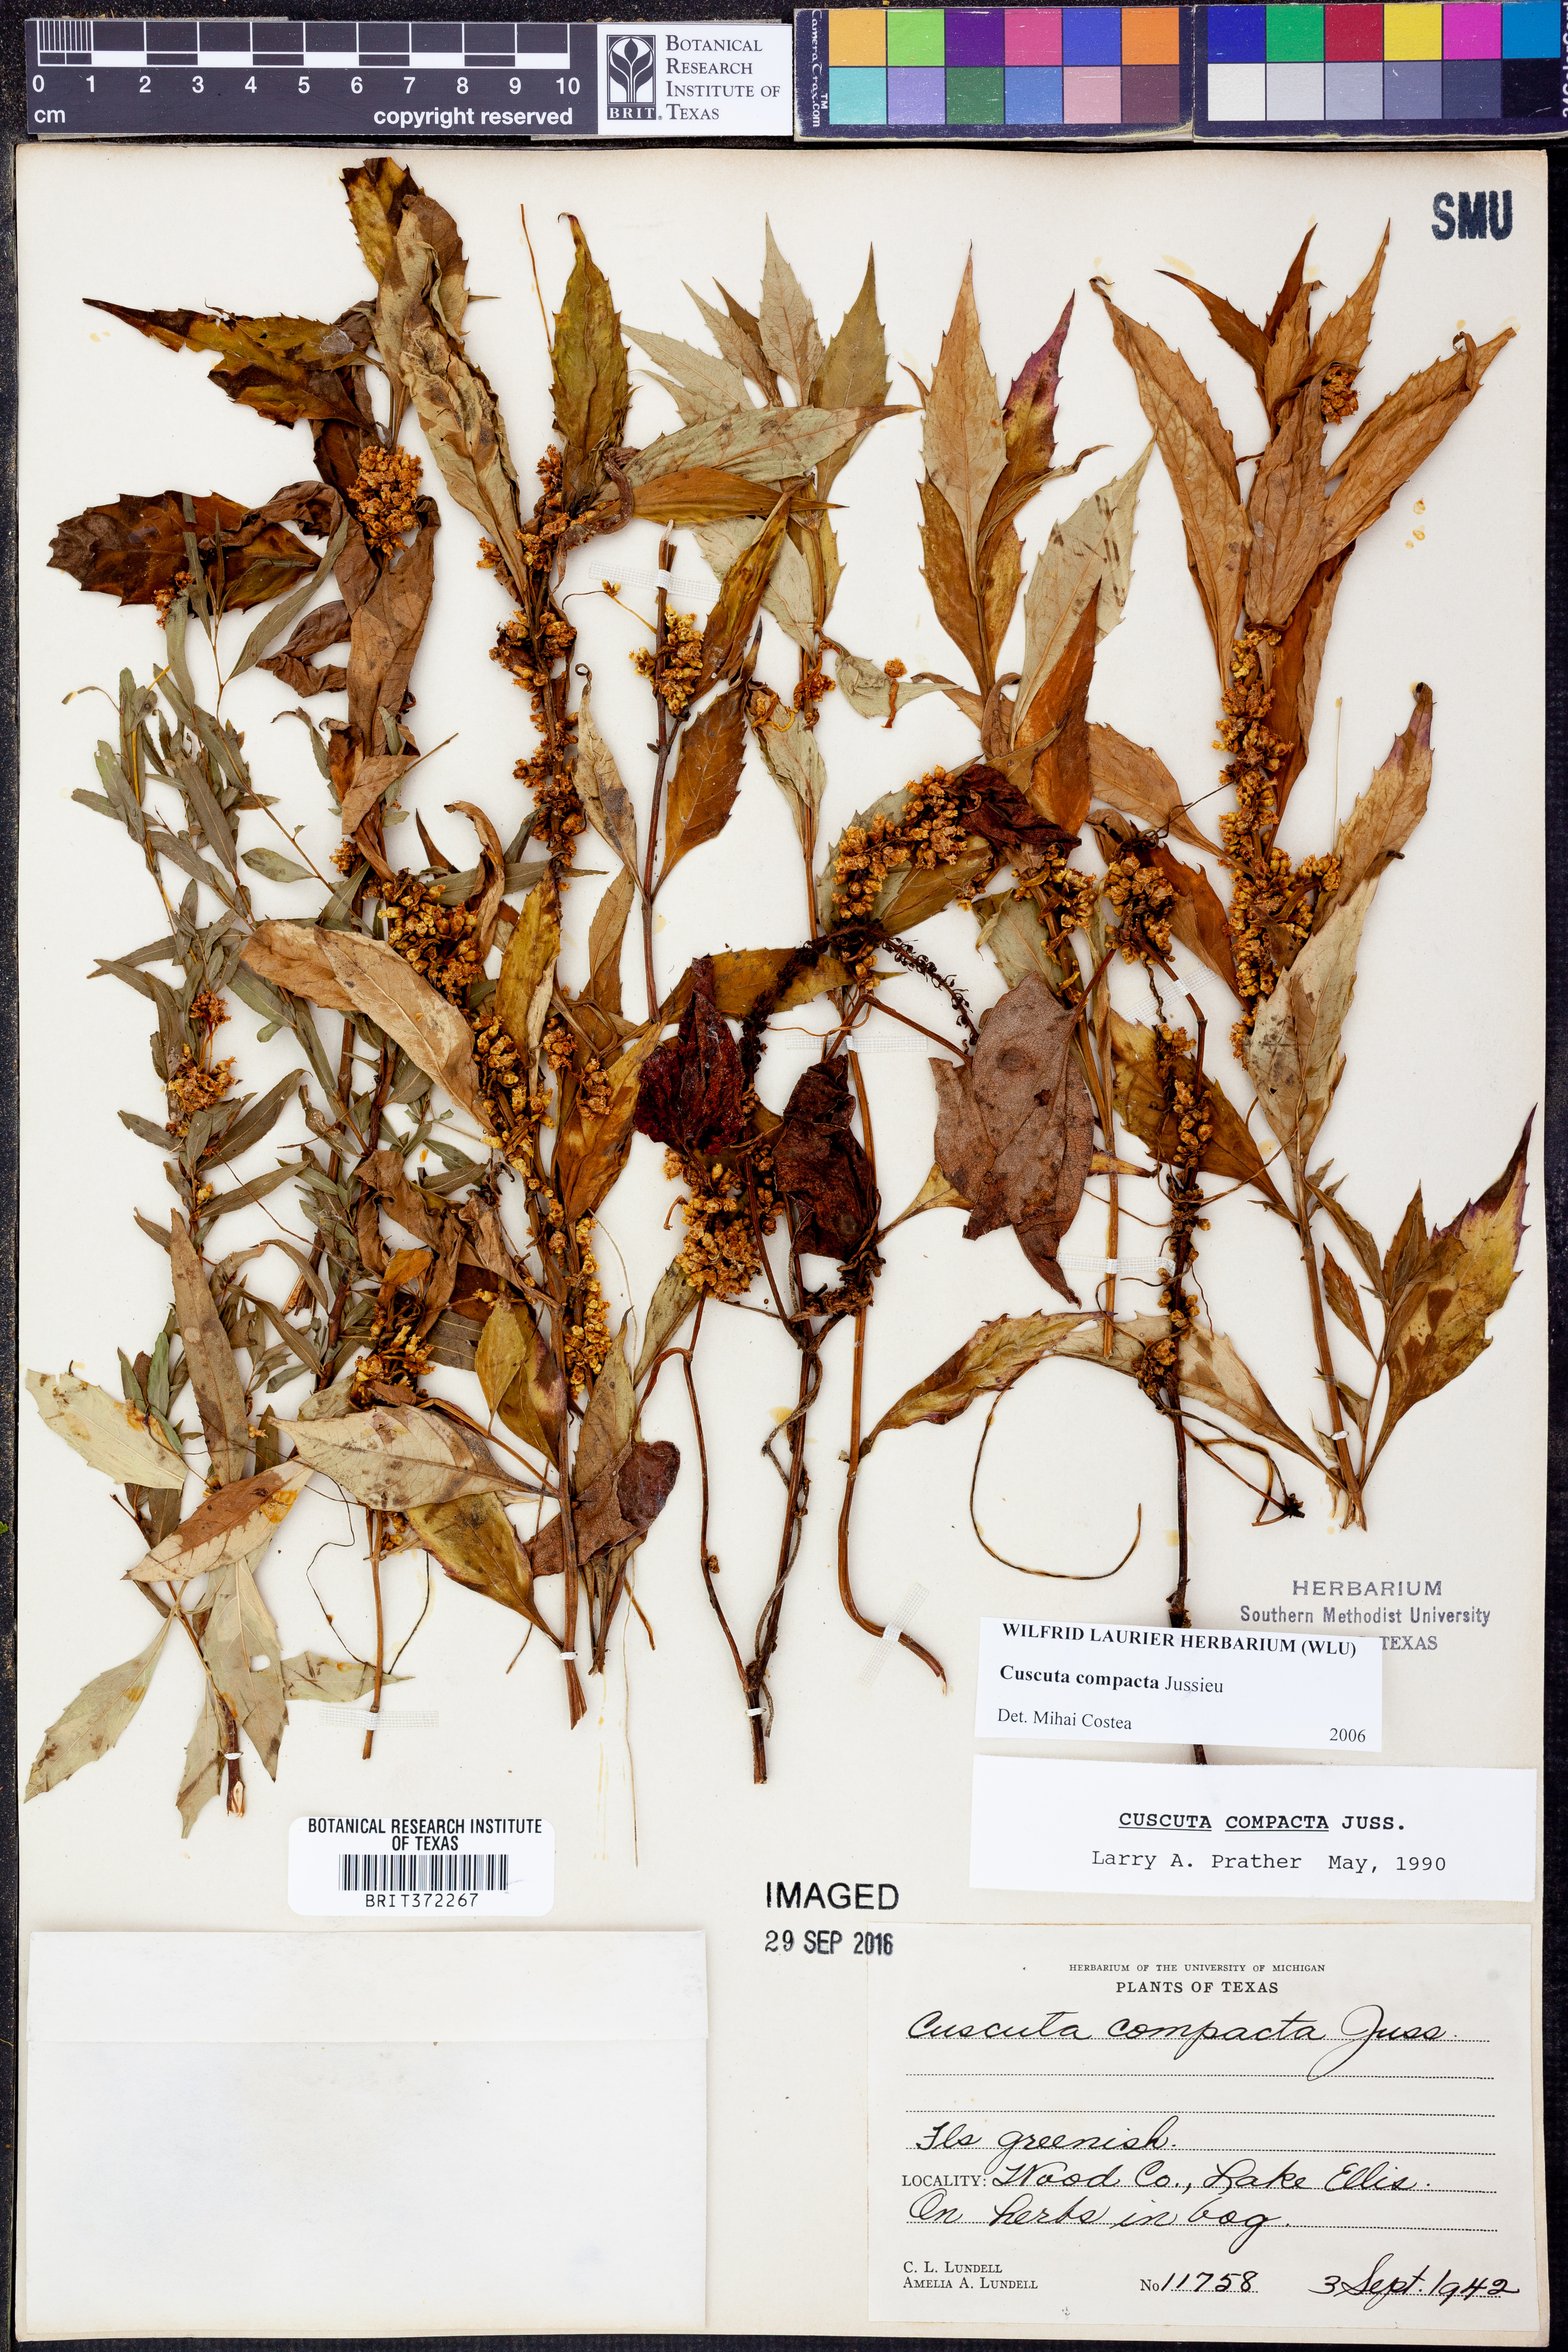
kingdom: Plantae
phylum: Tracheophyta
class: Magnoliopsida
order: Solanales
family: Convolvulaceae
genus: Cuscuta
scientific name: Cuscuta compacta
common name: Compact dodder
